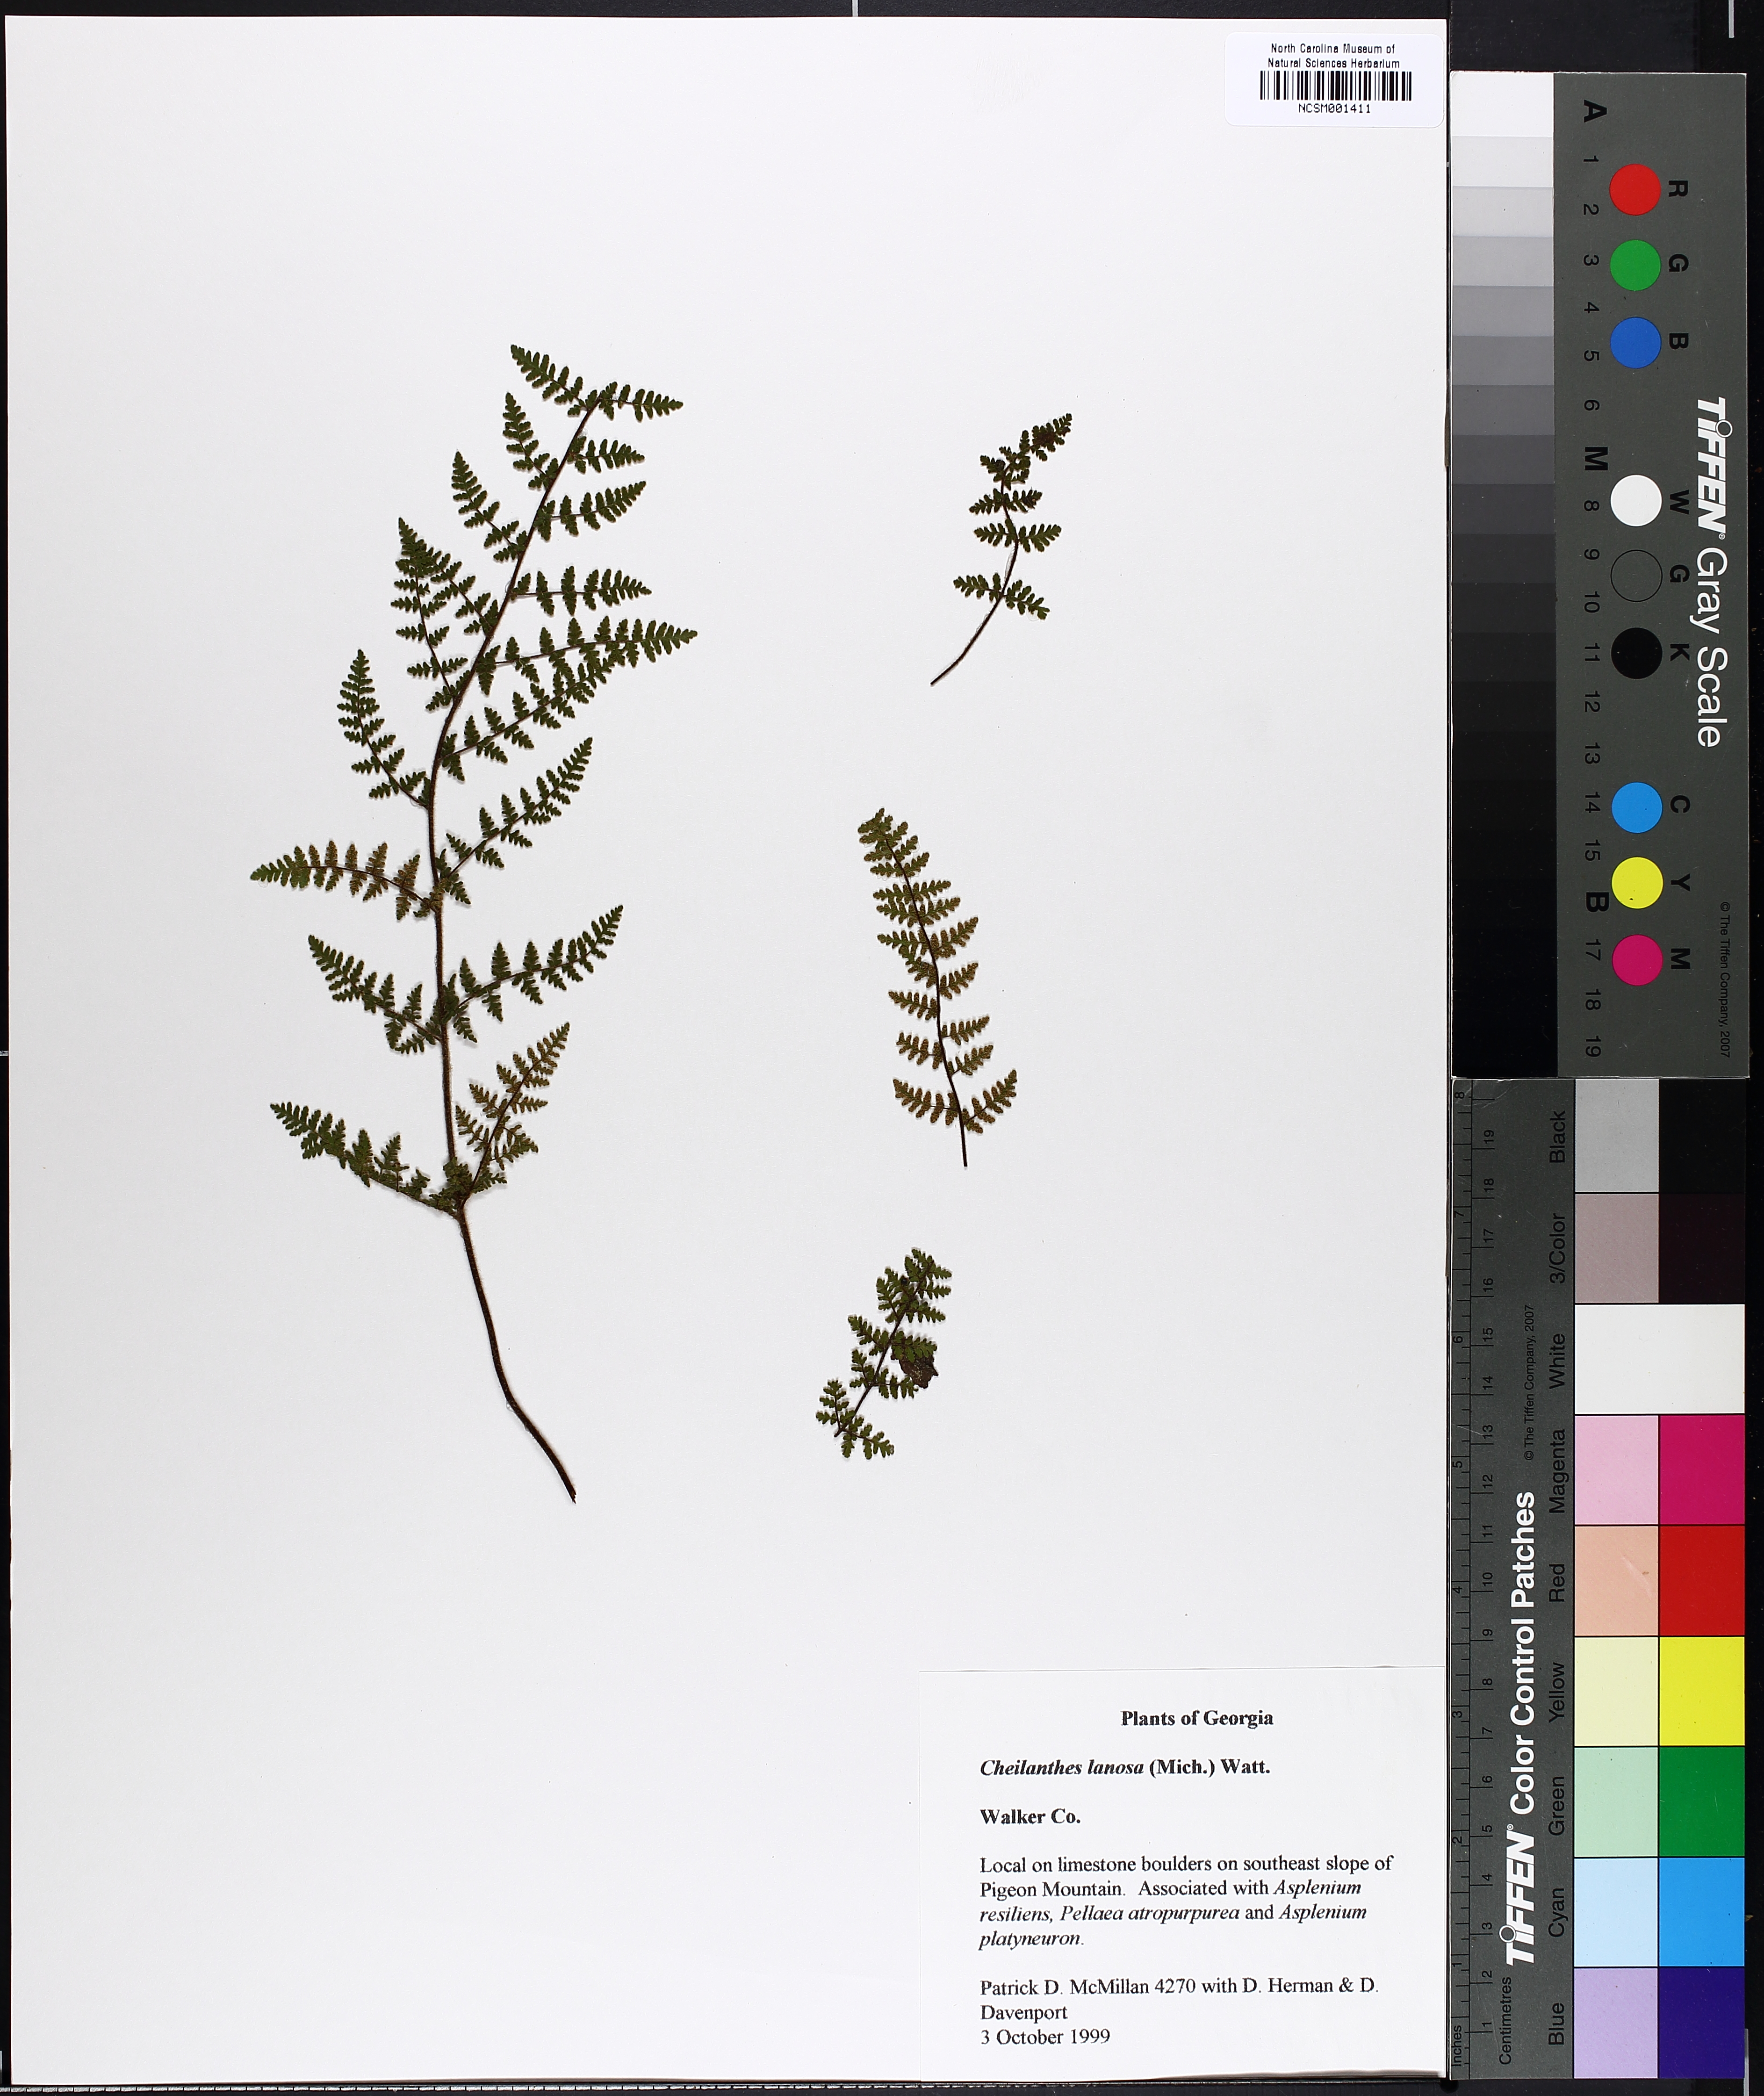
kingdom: Plantae
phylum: Tracheophyta
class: Polypodiopsida
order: Polypodiales
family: Pteridaceae
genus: Myriopteris
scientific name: Myriopteris lanosa
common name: Hairy lip fern
